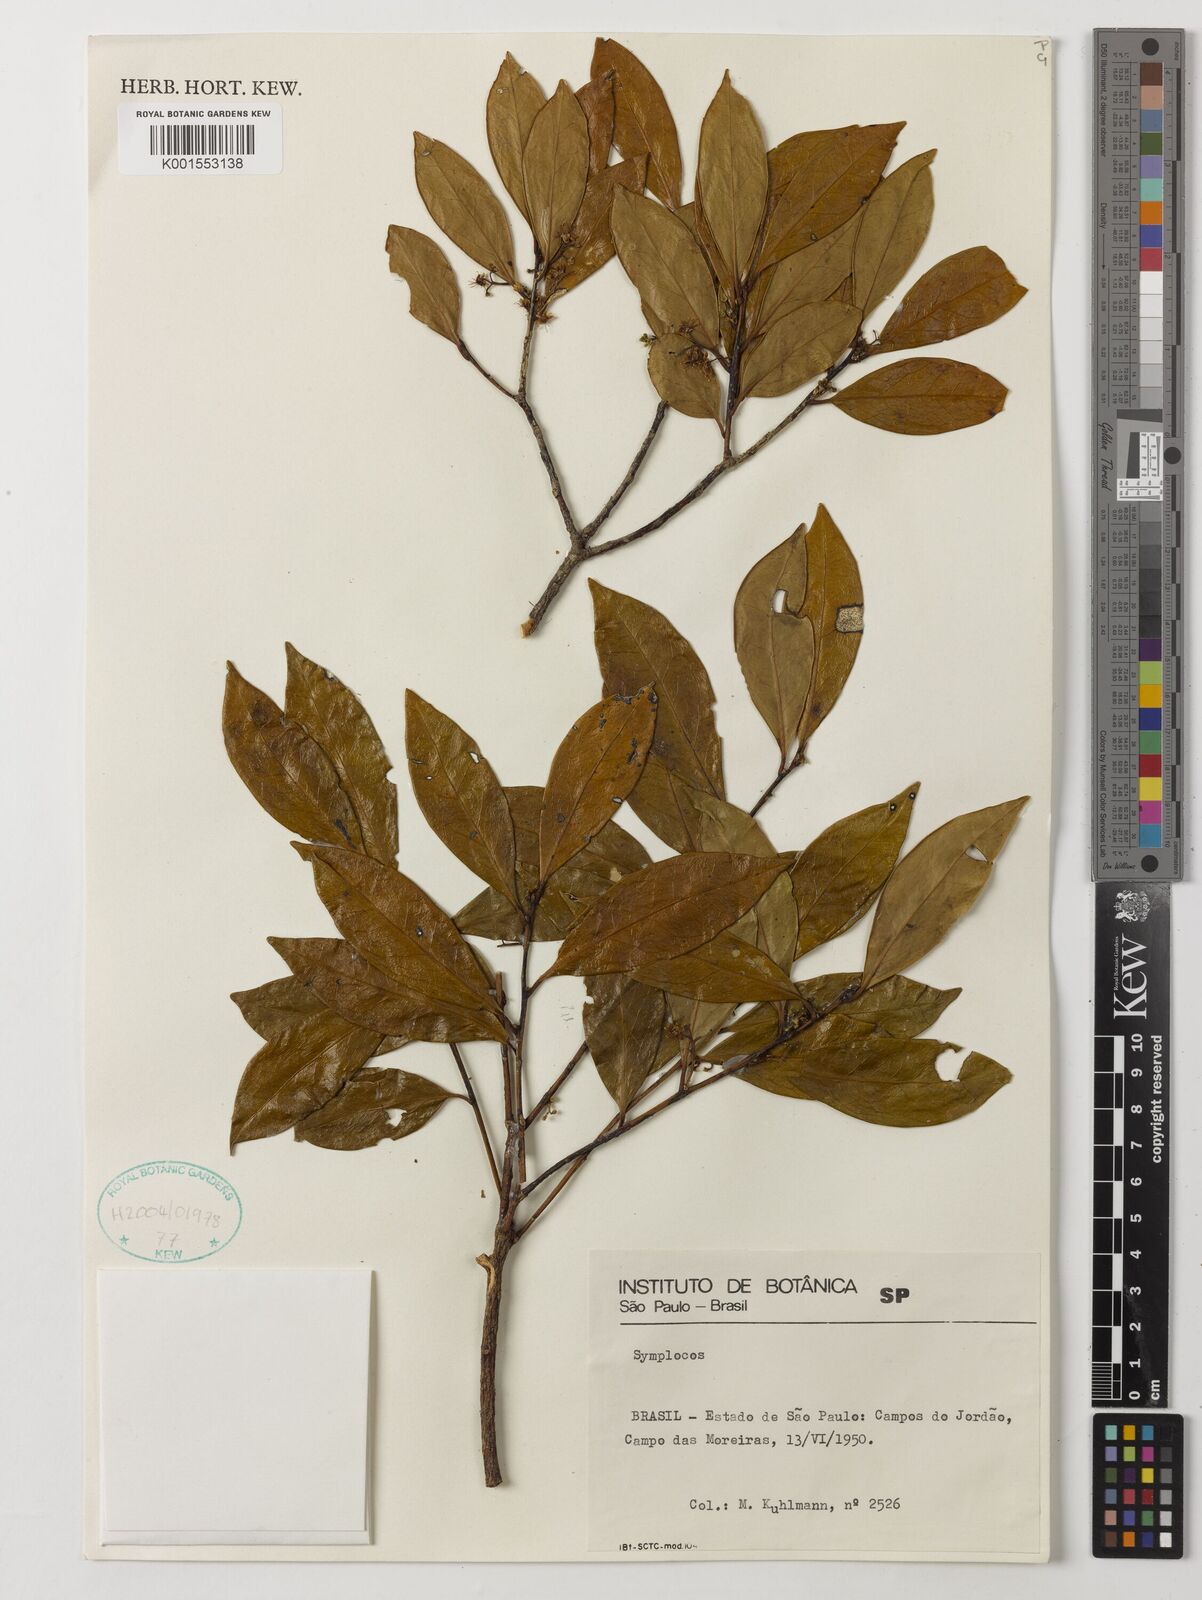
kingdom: Plantae
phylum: Tracheophyta
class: Magnoliopsida
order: Ericales
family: Symplocaceae
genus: Symplocos
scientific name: Symplocos
